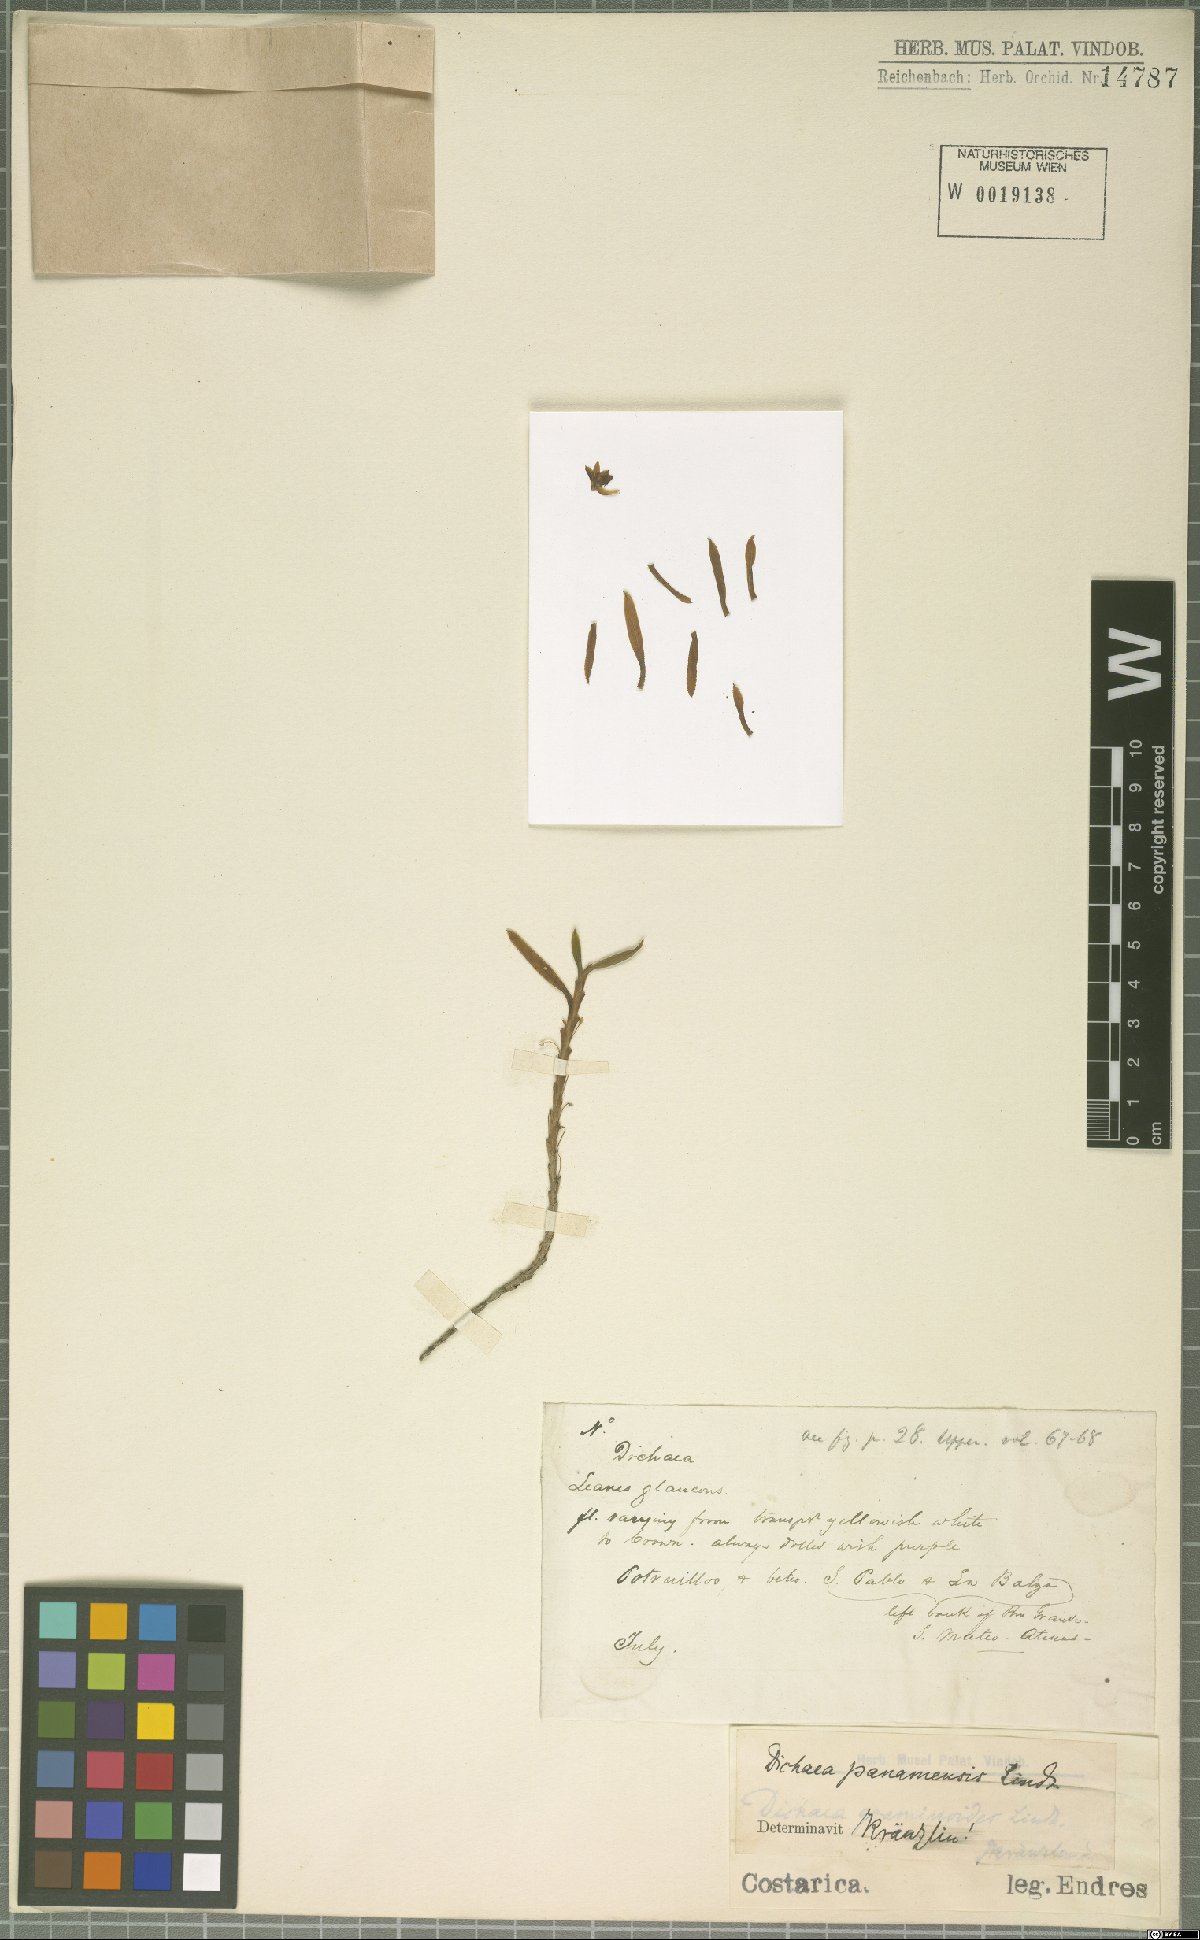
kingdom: Plantae
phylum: Tracheophyta
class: Liliopsida
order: Asparagales
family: Orchidaceae
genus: Dichaea
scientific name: Dichaea panamensis
